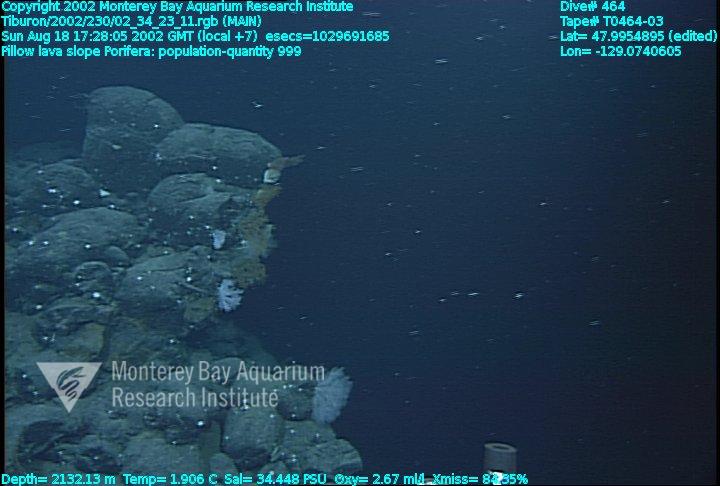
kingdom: Animalia
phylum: Porifera
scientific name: Porifera
